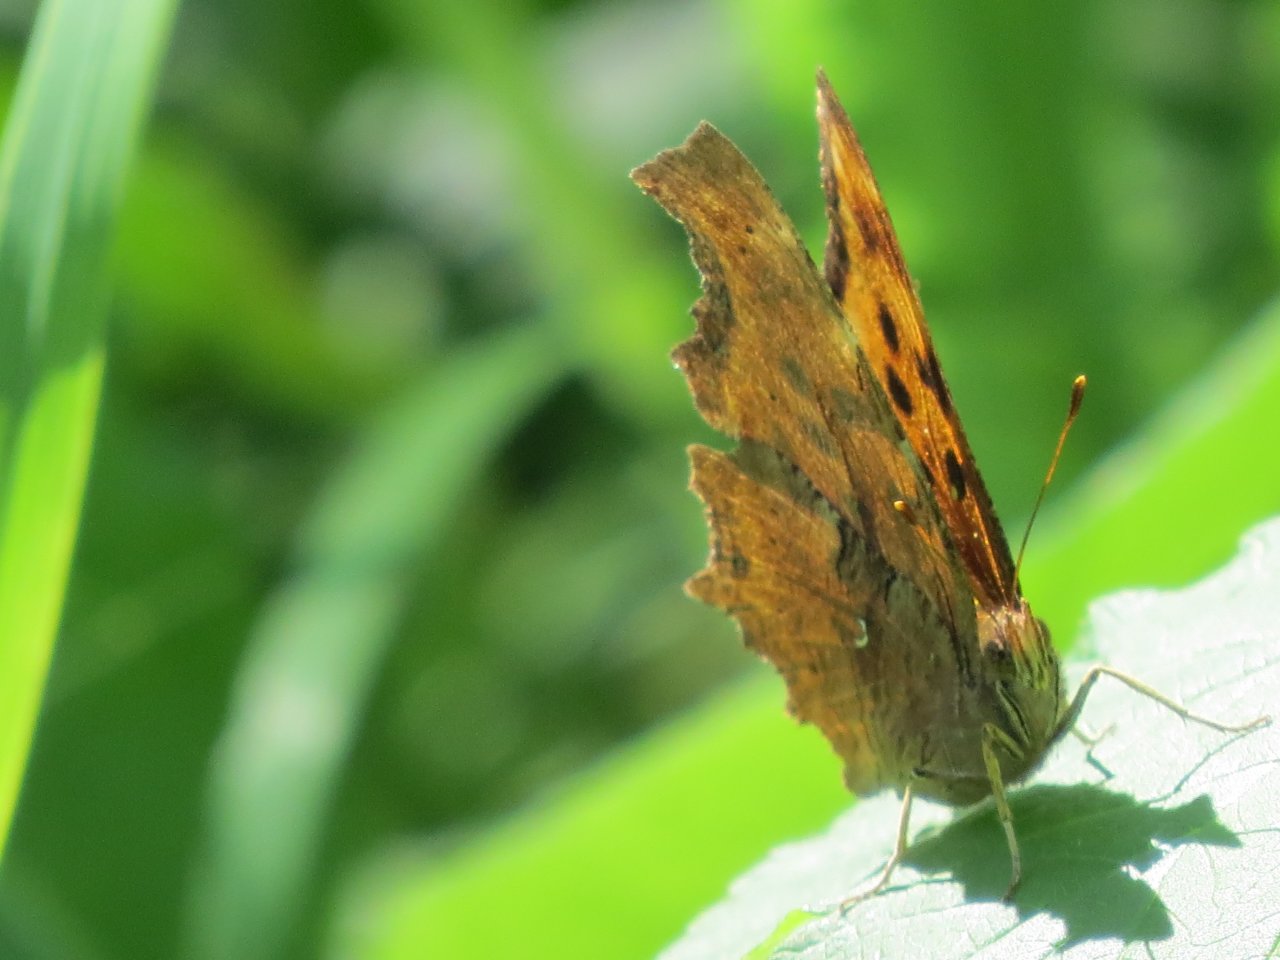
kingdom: Animalia
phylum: Arthropoda
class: Insecta
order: Lepidoptera
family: Nymphalidae
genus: Polygonia
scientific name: Polygonia satyrus
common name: Satyr Comma
